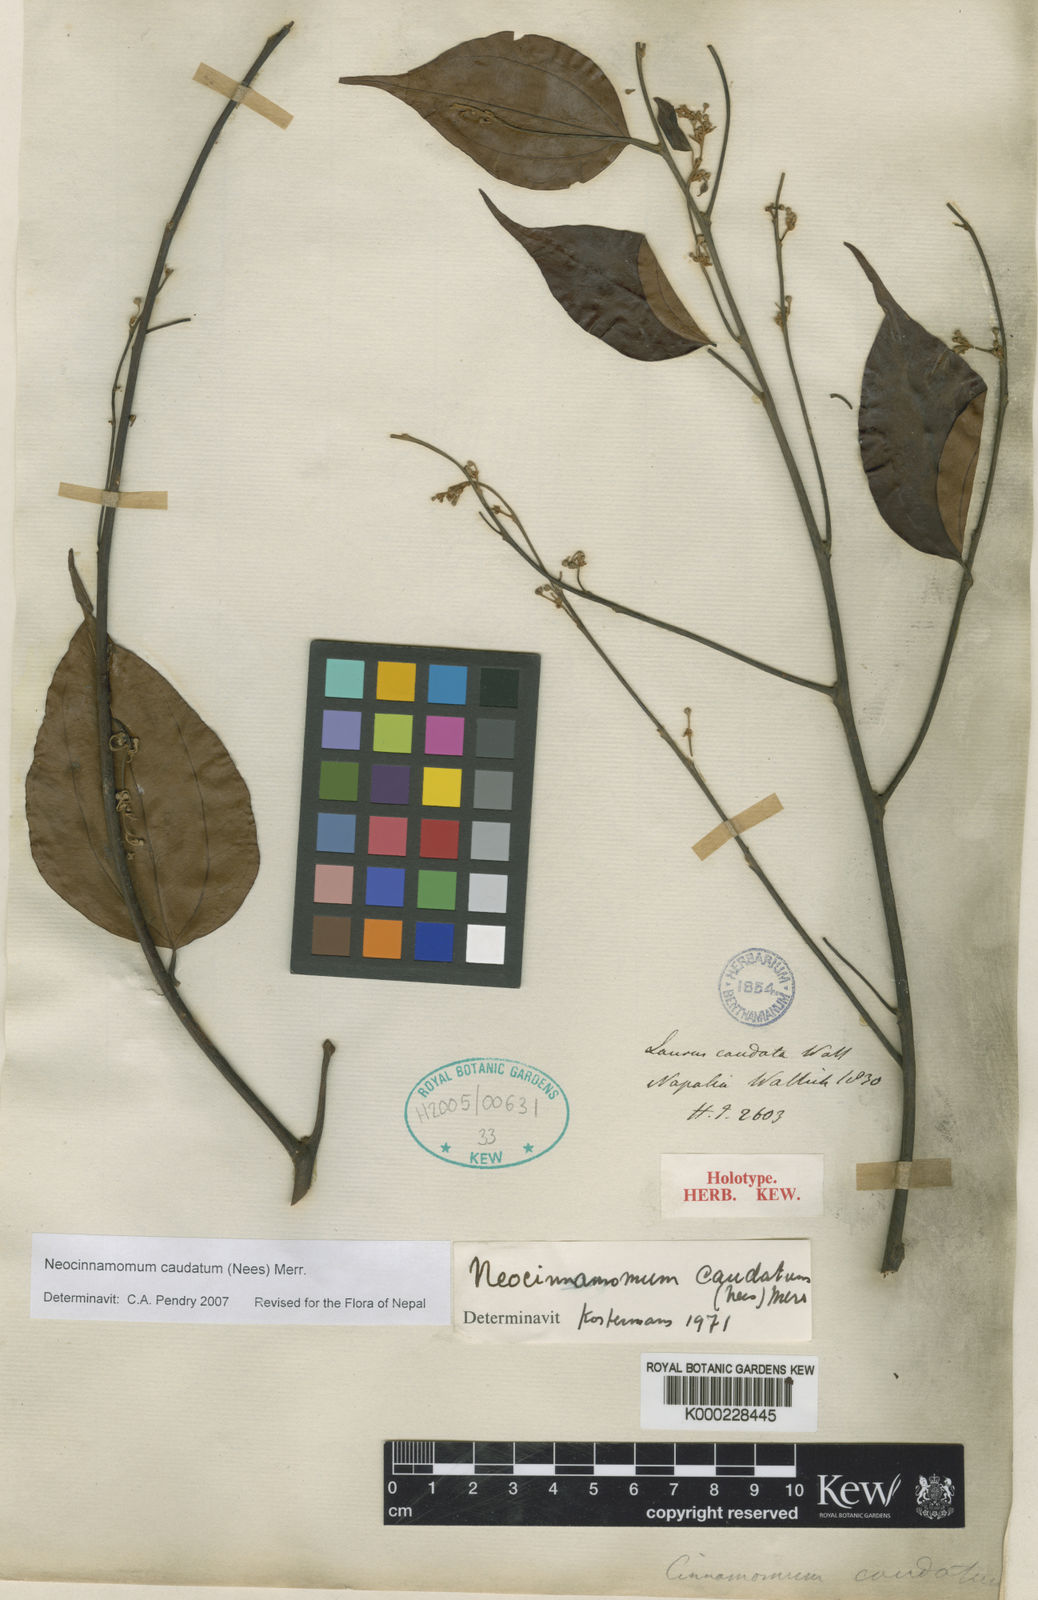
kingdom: Plantae
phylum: Tracheophyta
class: Magnoliopsida
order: Laurales
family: Lauraceae
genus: Neocinnamomum
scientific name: Neocinnamomum caudatum
